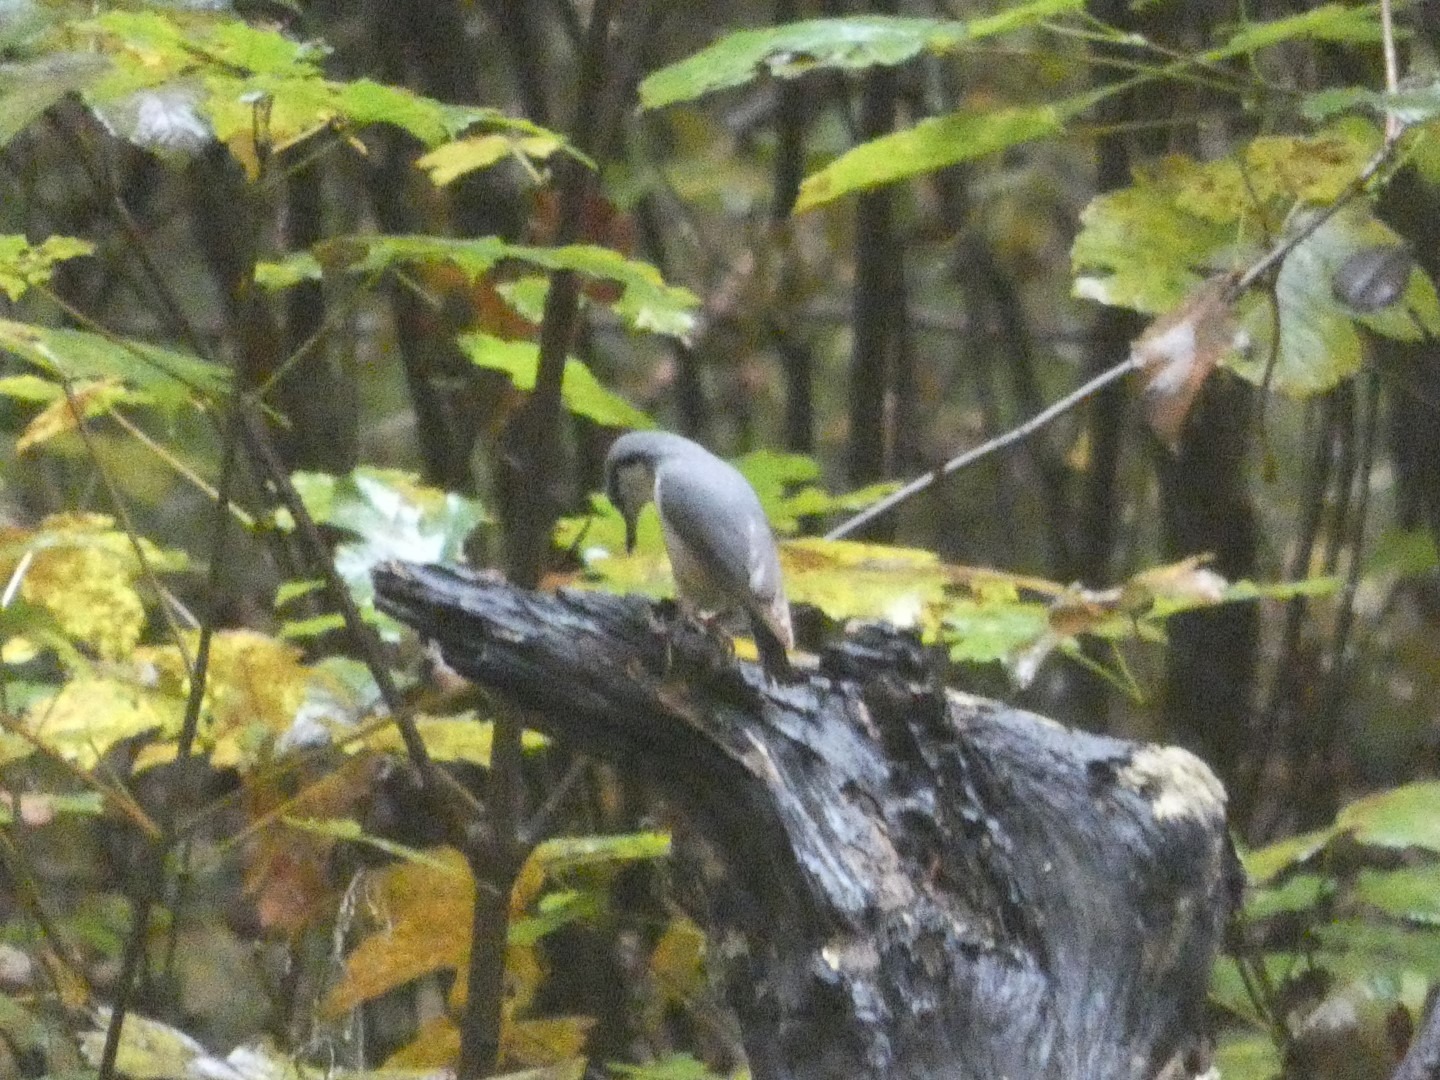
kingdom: Animalia
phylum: Chordata
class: Aves
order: Passeriformes
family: Sittidae
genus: Sitta
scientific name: Sitta europaea
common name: Spætmejse
